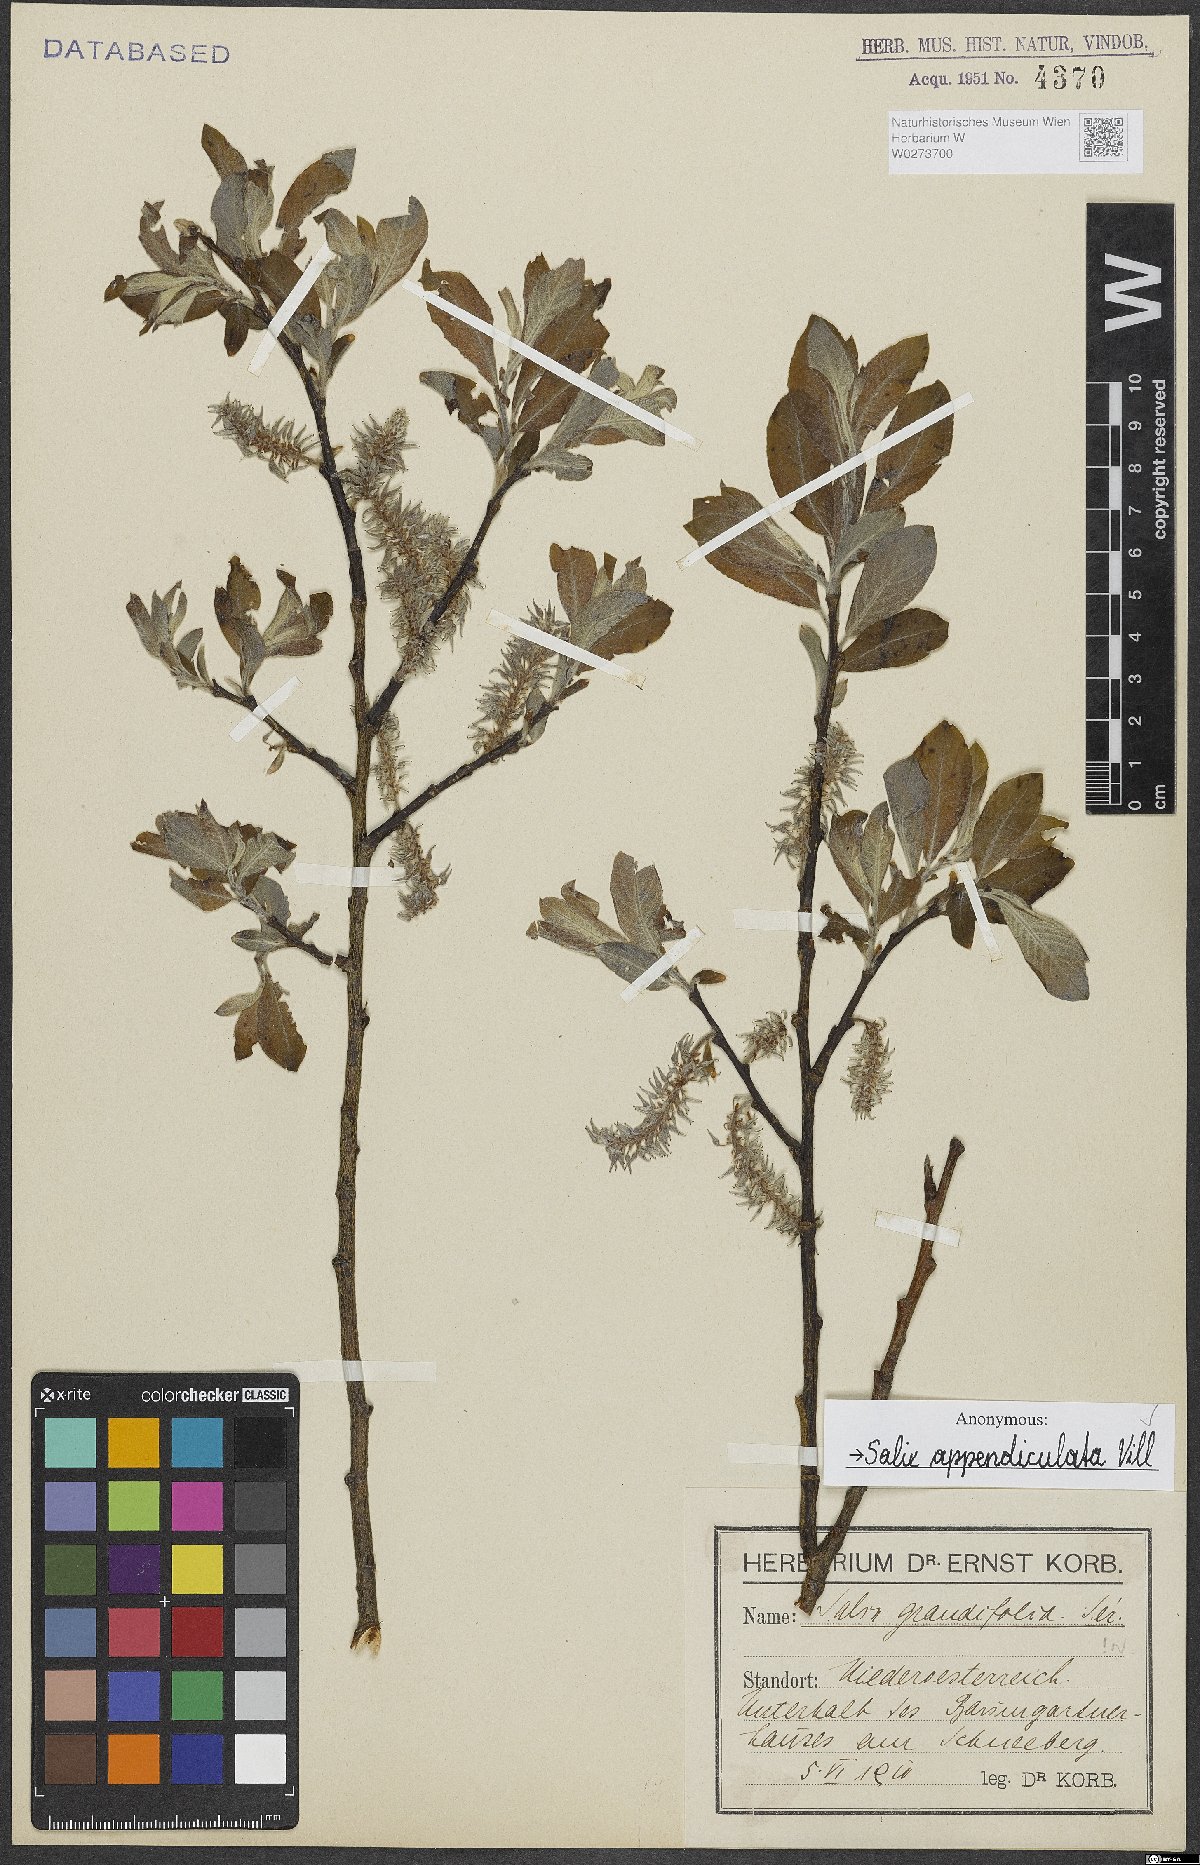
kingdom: Plantae
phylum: Tracheophyta
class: Magnoliopsida
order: Malpighiales
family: Salicaceae
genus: Salix
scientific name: Salix appendiculata
